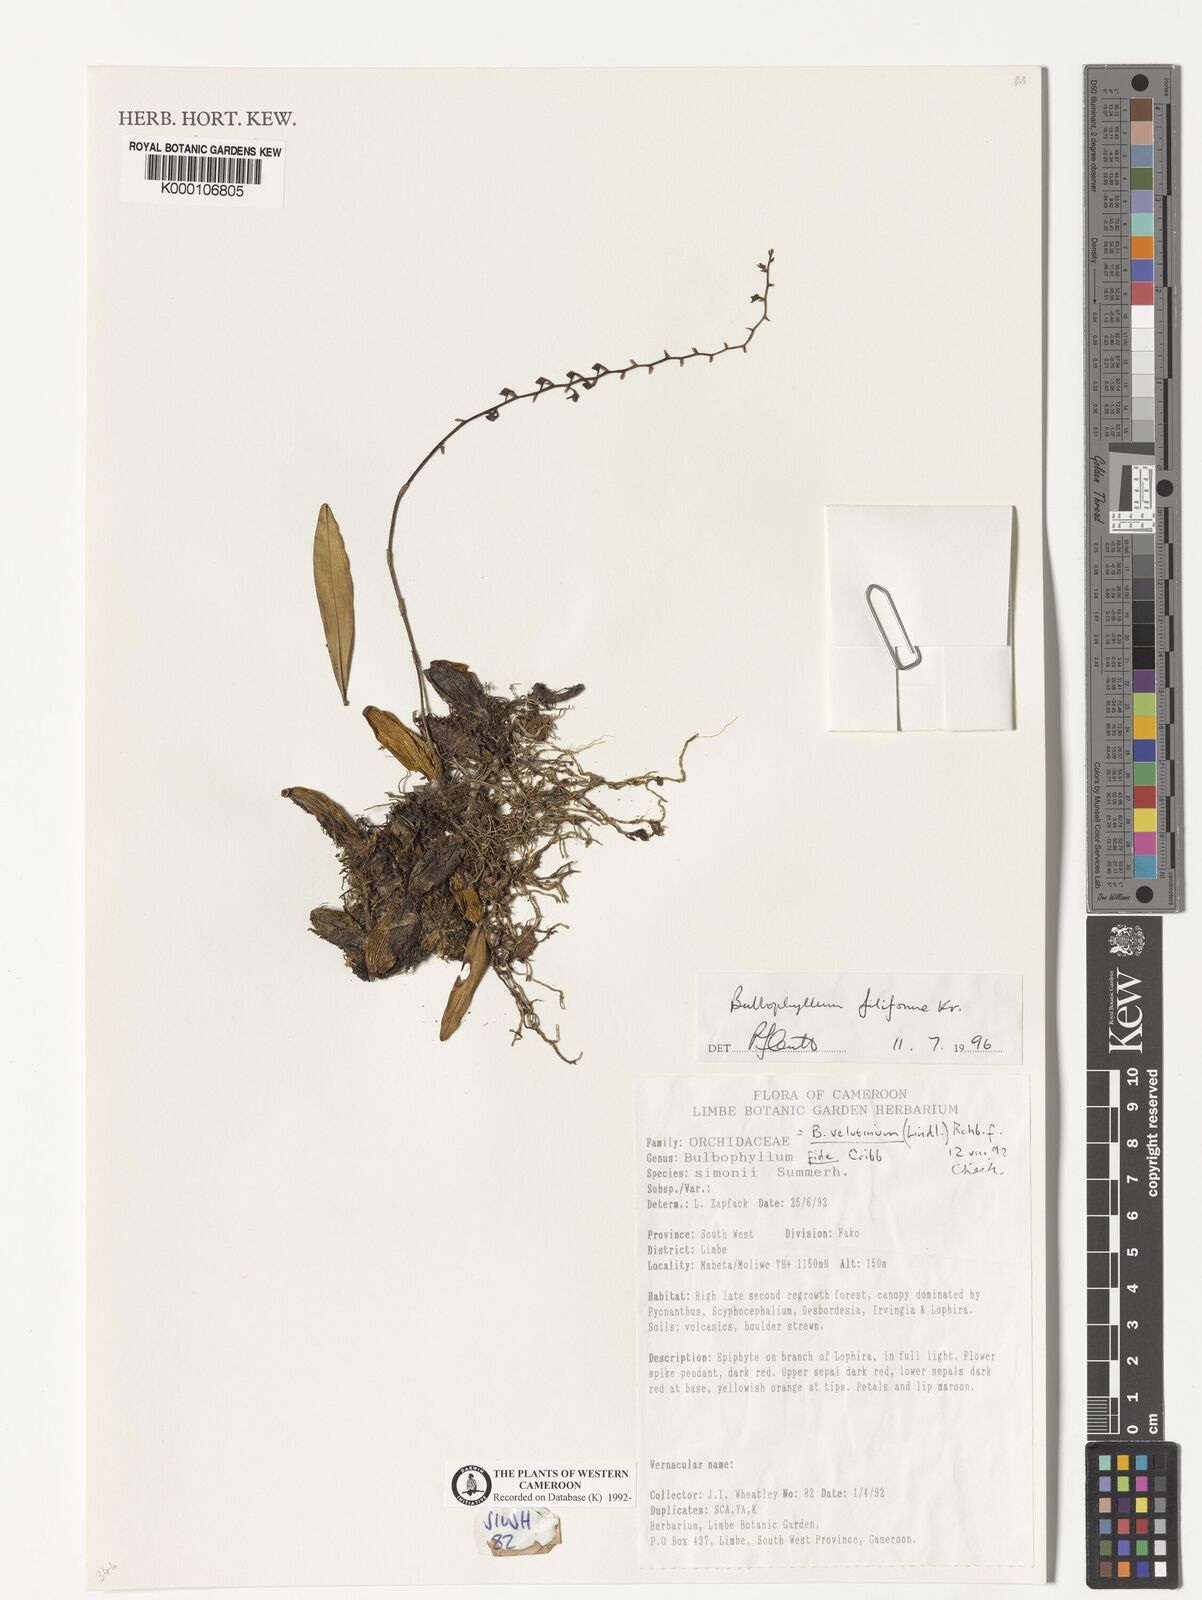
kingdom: Plantae
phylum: Tracheophyta
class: Liliopsida
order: Asparagales
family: Orchidaceae
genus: Bulbophyllum
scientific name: Bulbophyllum resupinatum
